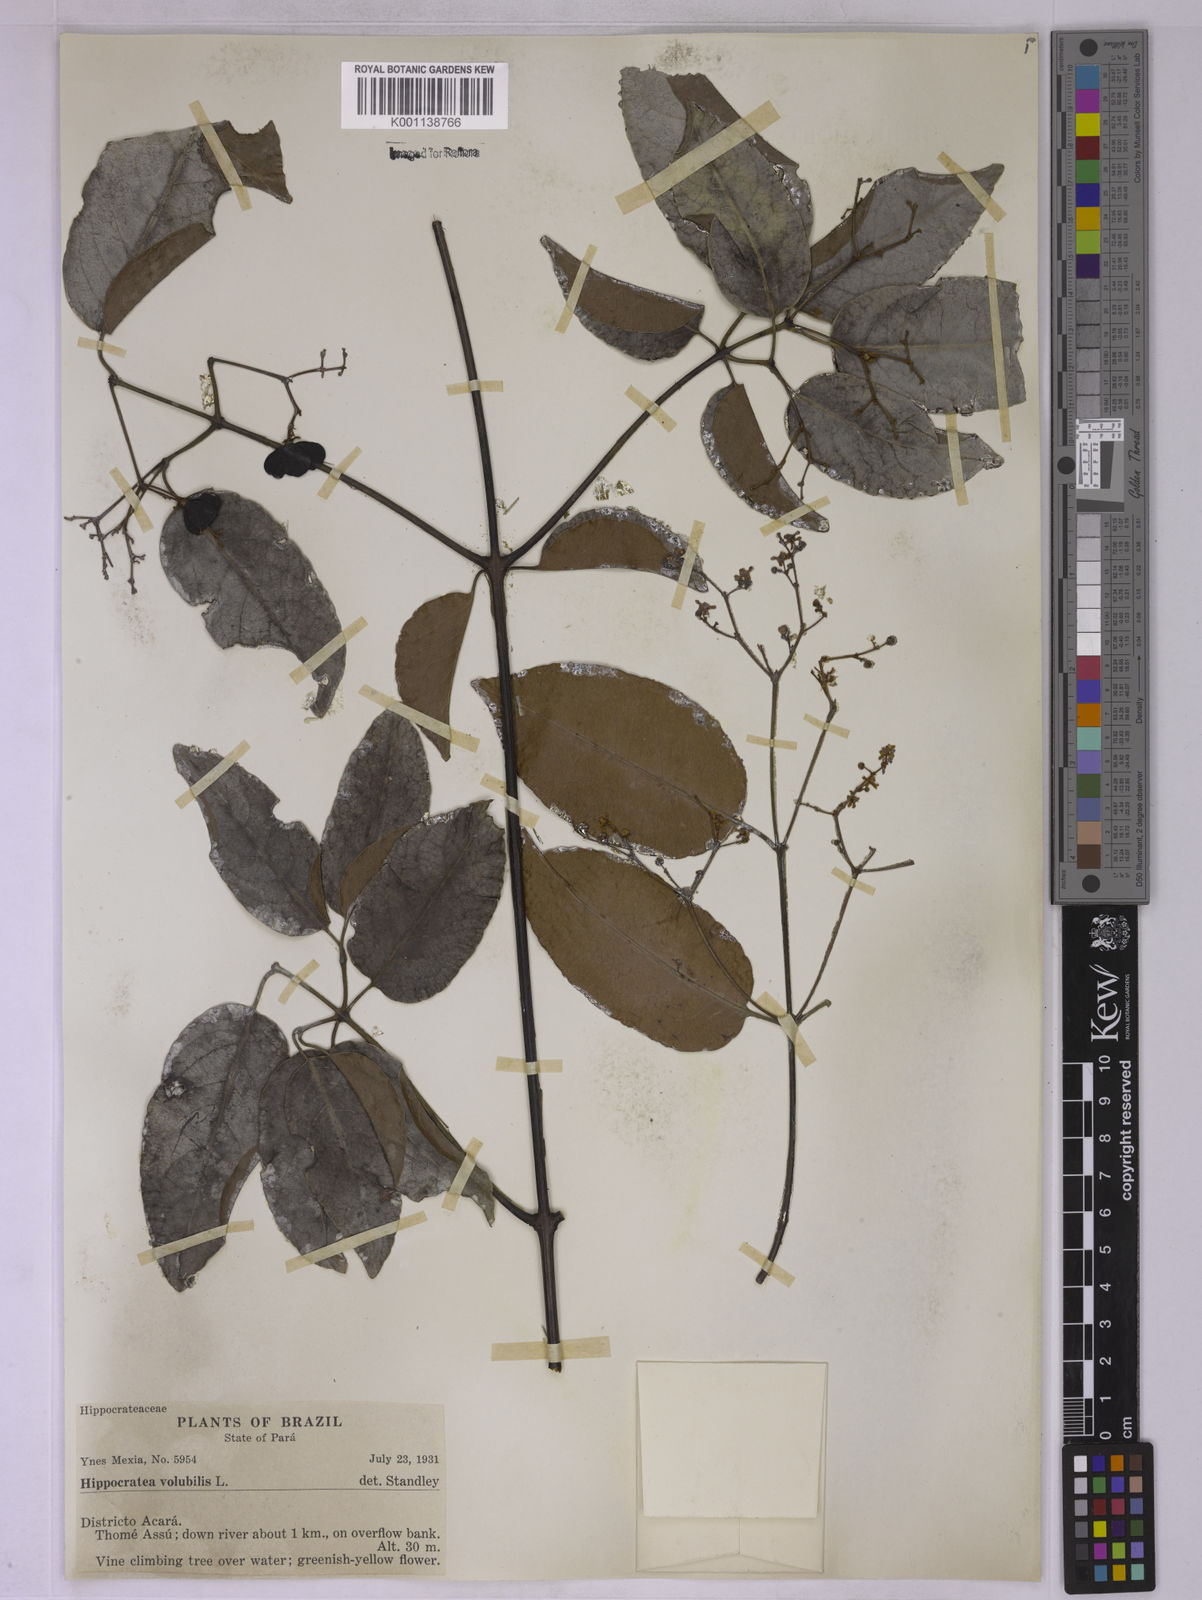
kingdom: Plantae
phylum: Tracheophyta
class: Magnoliopsida
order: Celastrales
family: Celastraceae
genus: Hippocratea
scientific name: Hippocratea volubilis
